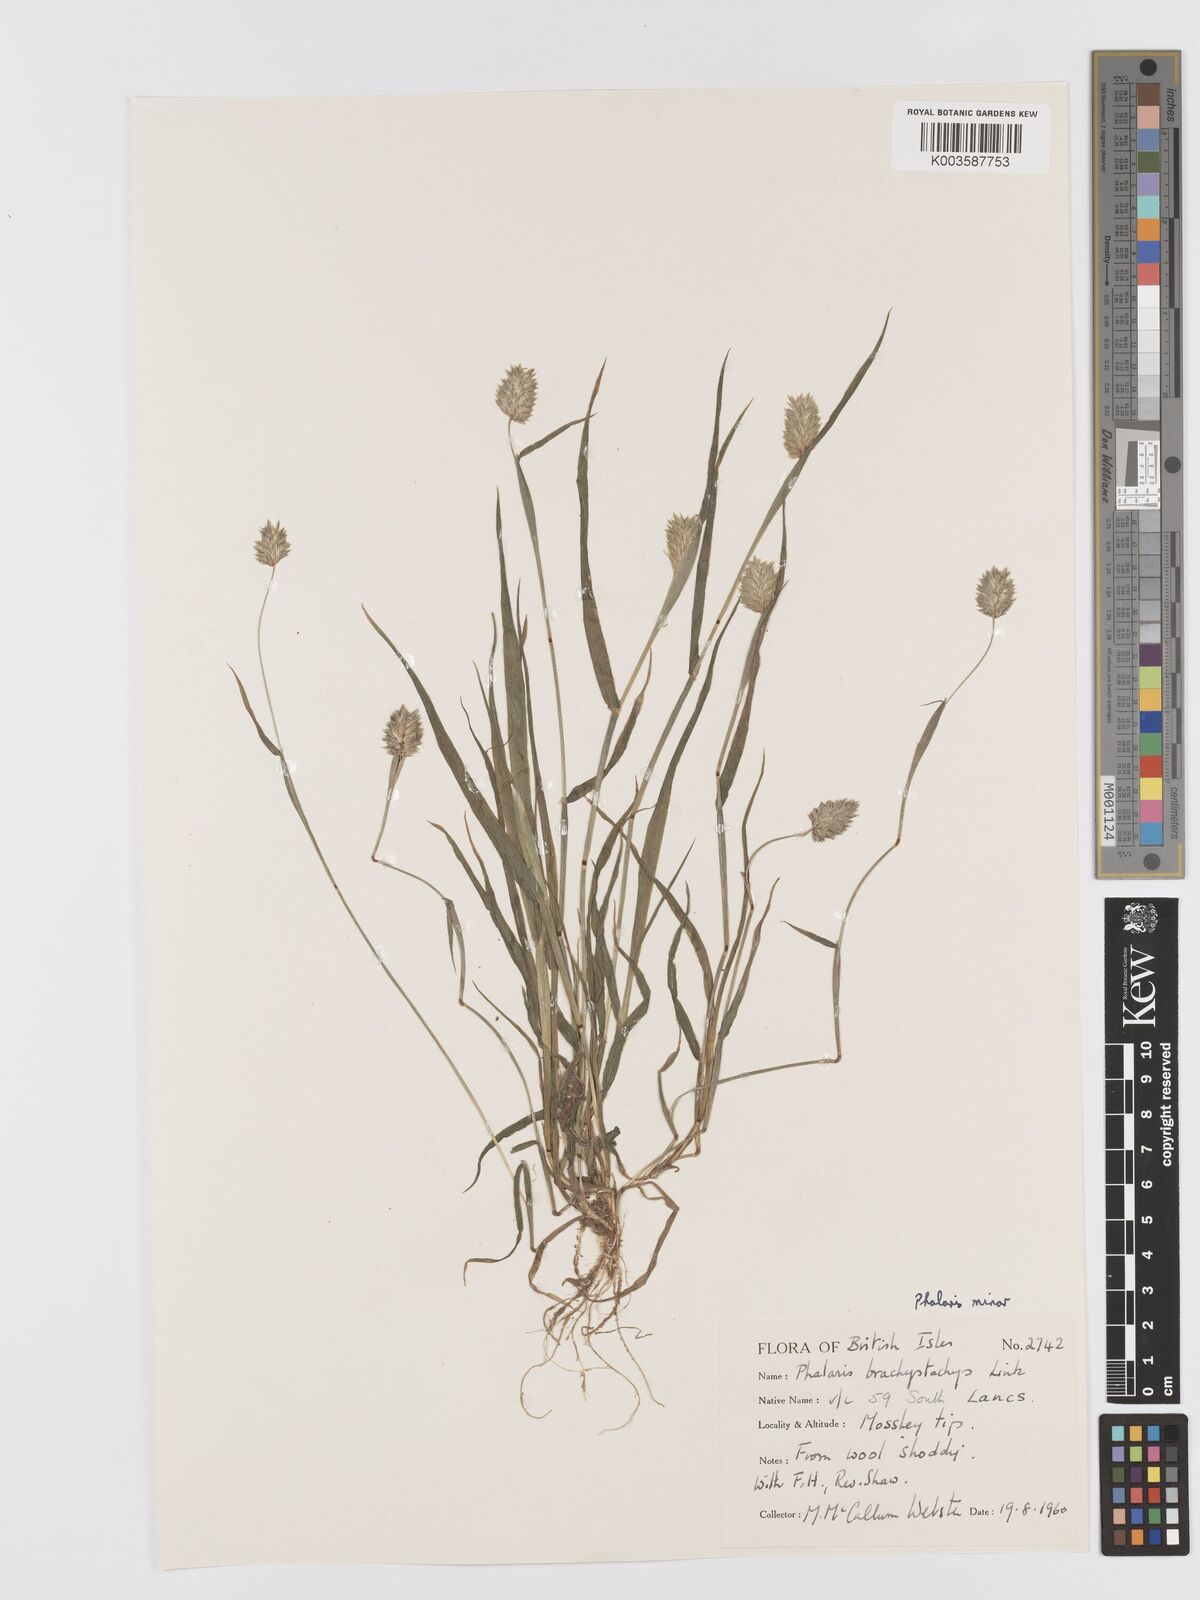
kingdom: Plantae
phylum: Tracheophyta
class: Liliopsida
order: Poales
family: Poaceae
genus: Phalaris
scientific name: Phalaris minor
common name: Littleseed canarygrass
